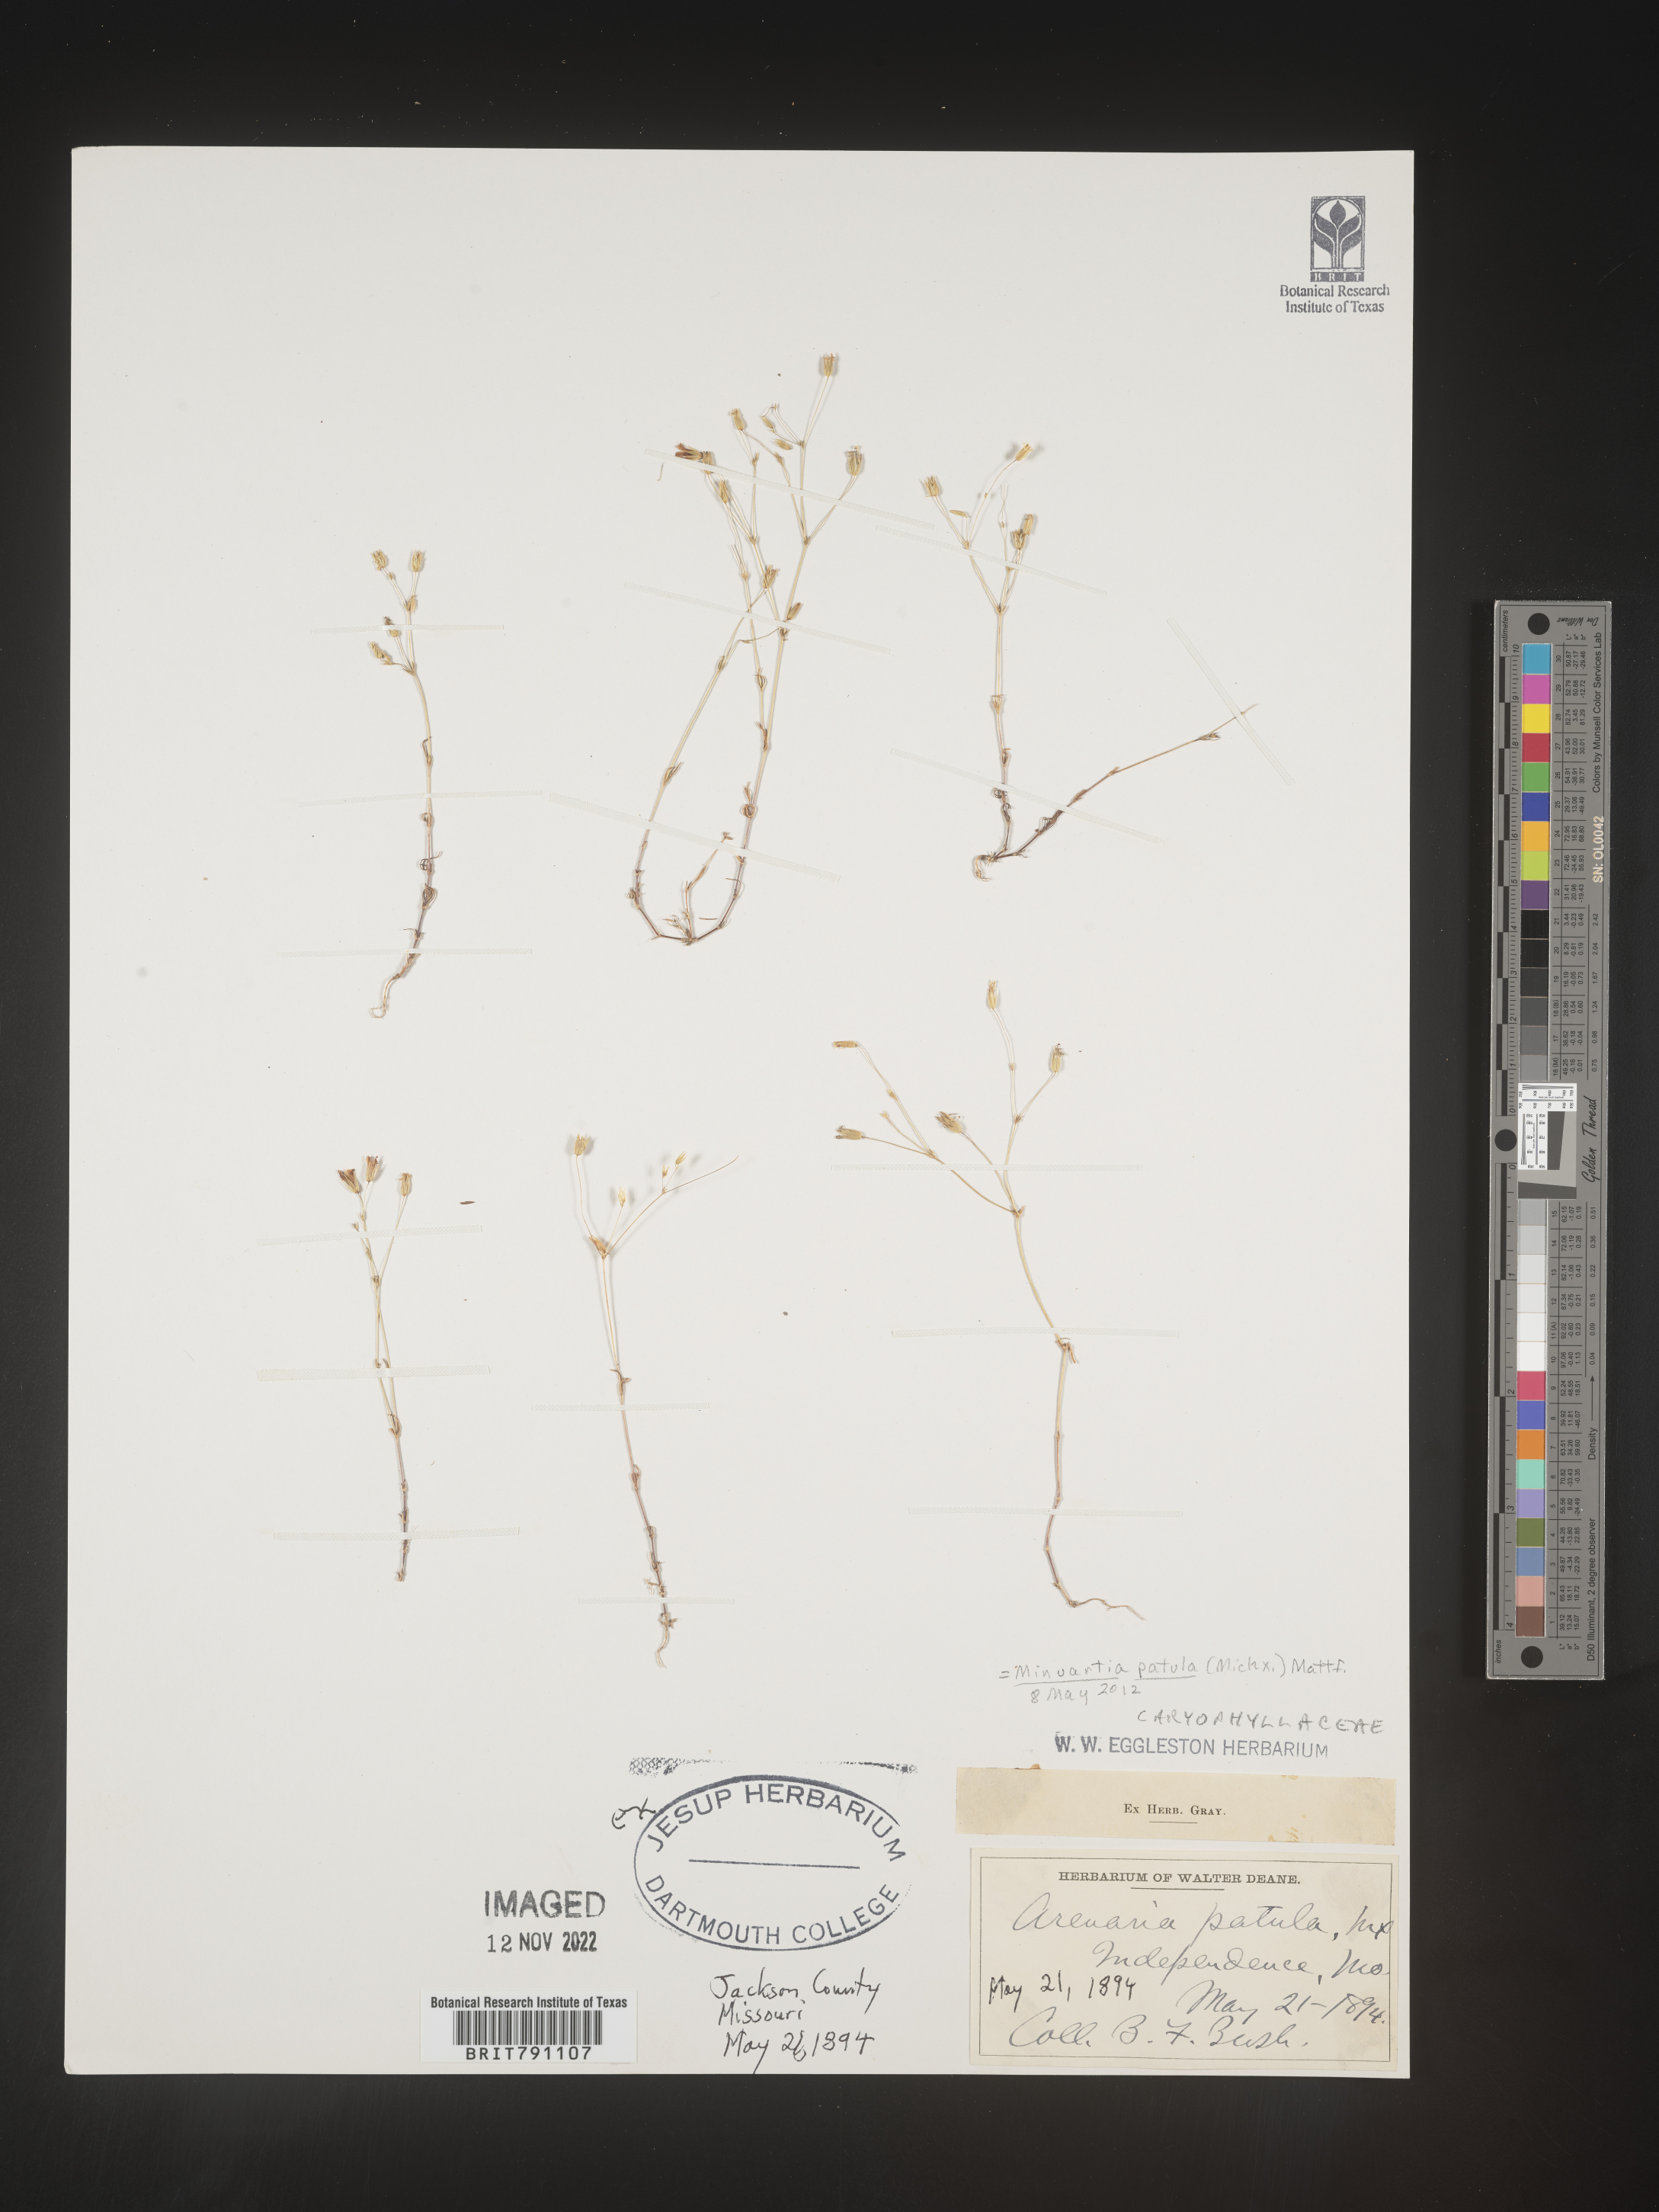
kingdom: Plantae
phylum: Tracheophyta
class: Magnoliopsida
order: Caryophyllales
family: Caryophyllaceae
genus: Mononeuria
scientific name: Mononeuria patula
